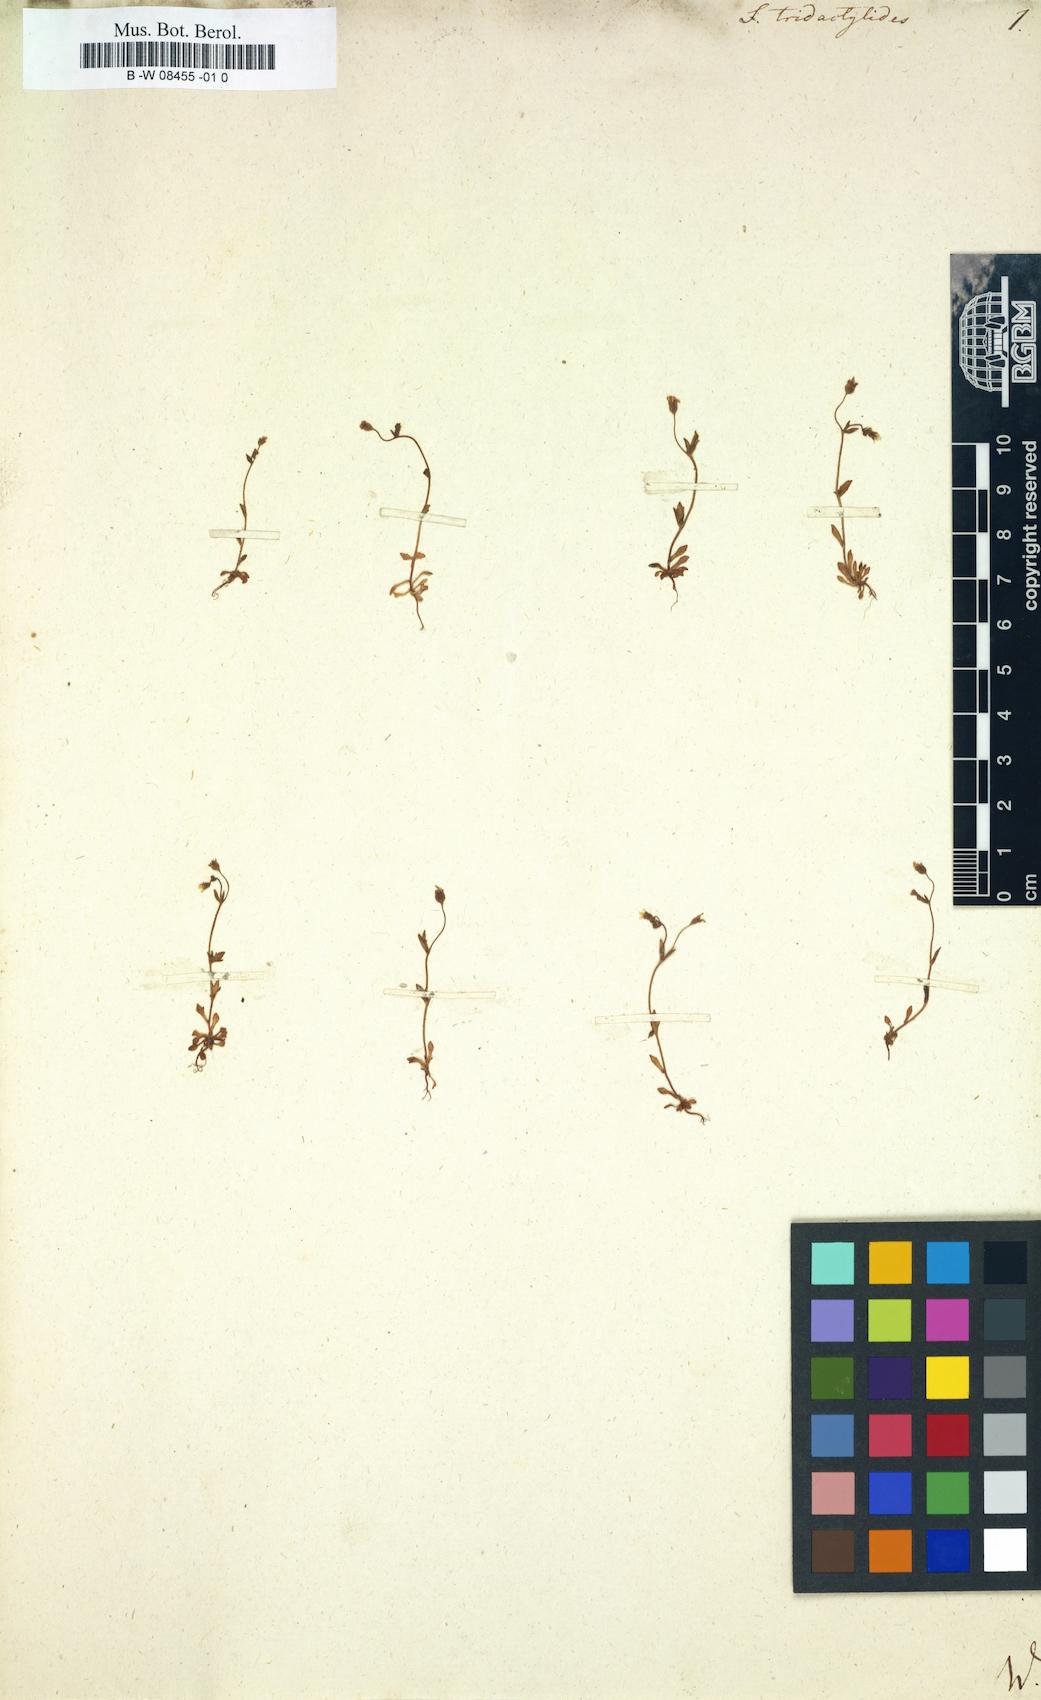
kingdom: Plantae
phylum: Tracheophyta
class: Magnoliopsida
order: Saxifragales
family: Saxifragaceae
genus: Saxifraga
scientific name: Saxifraga tridactylites
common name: Rue-leaved saxifrage
